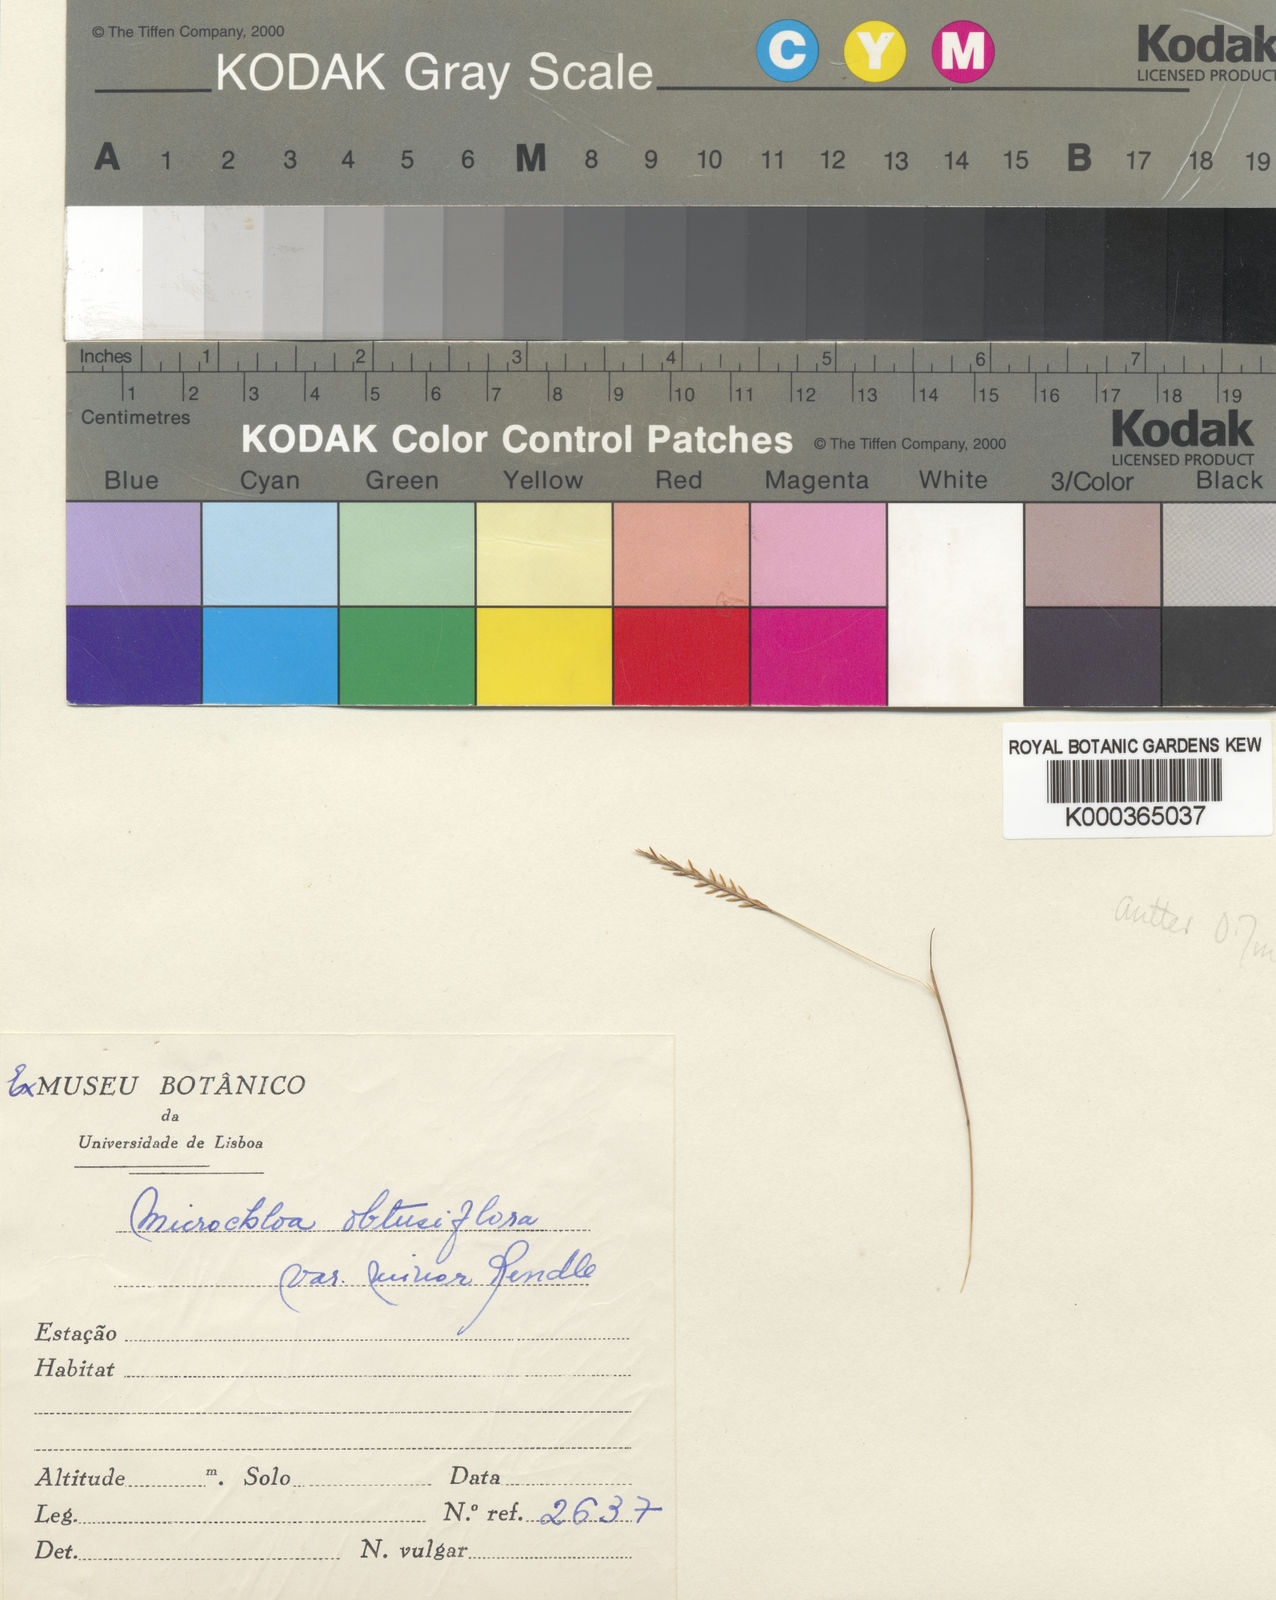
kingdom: Plantae
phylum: Tracheophyta
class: Liliopsida
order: Poales
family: Poaceae
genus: Micrachne
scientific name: Micrachne obtusiflora
